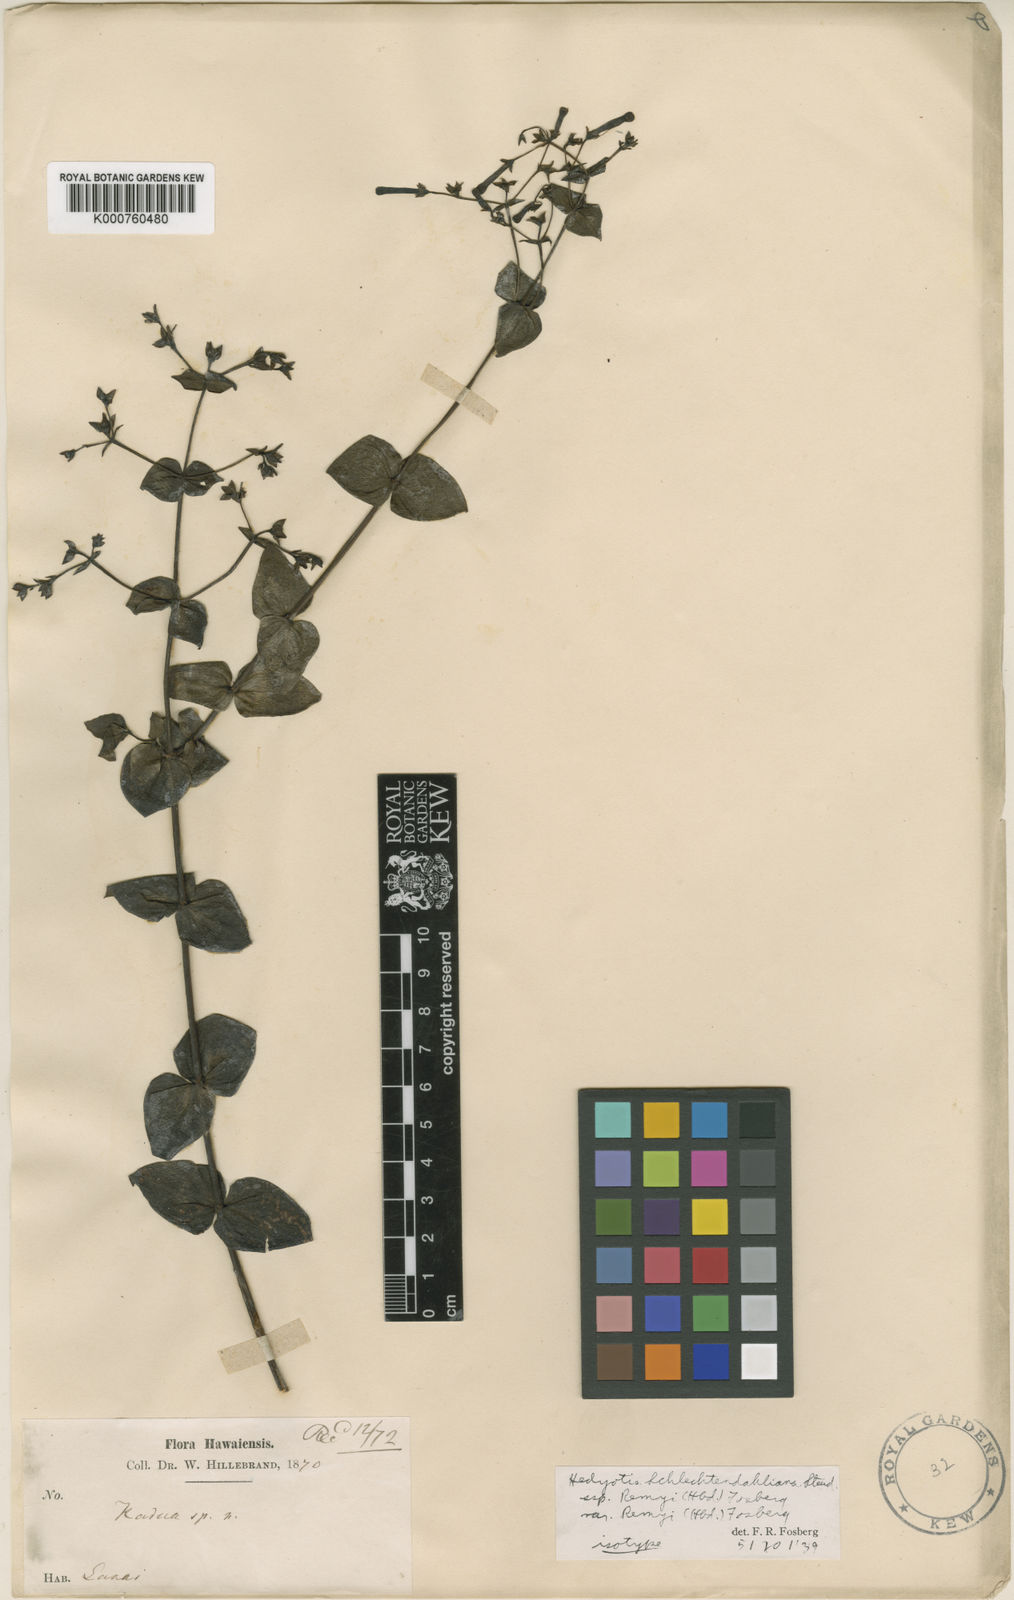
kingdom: Plantae
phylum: Tracheophyta
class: Magnoliopsida
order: Gentianales
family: Rubiaceae
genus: Kadua
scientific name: Kadua cordata
